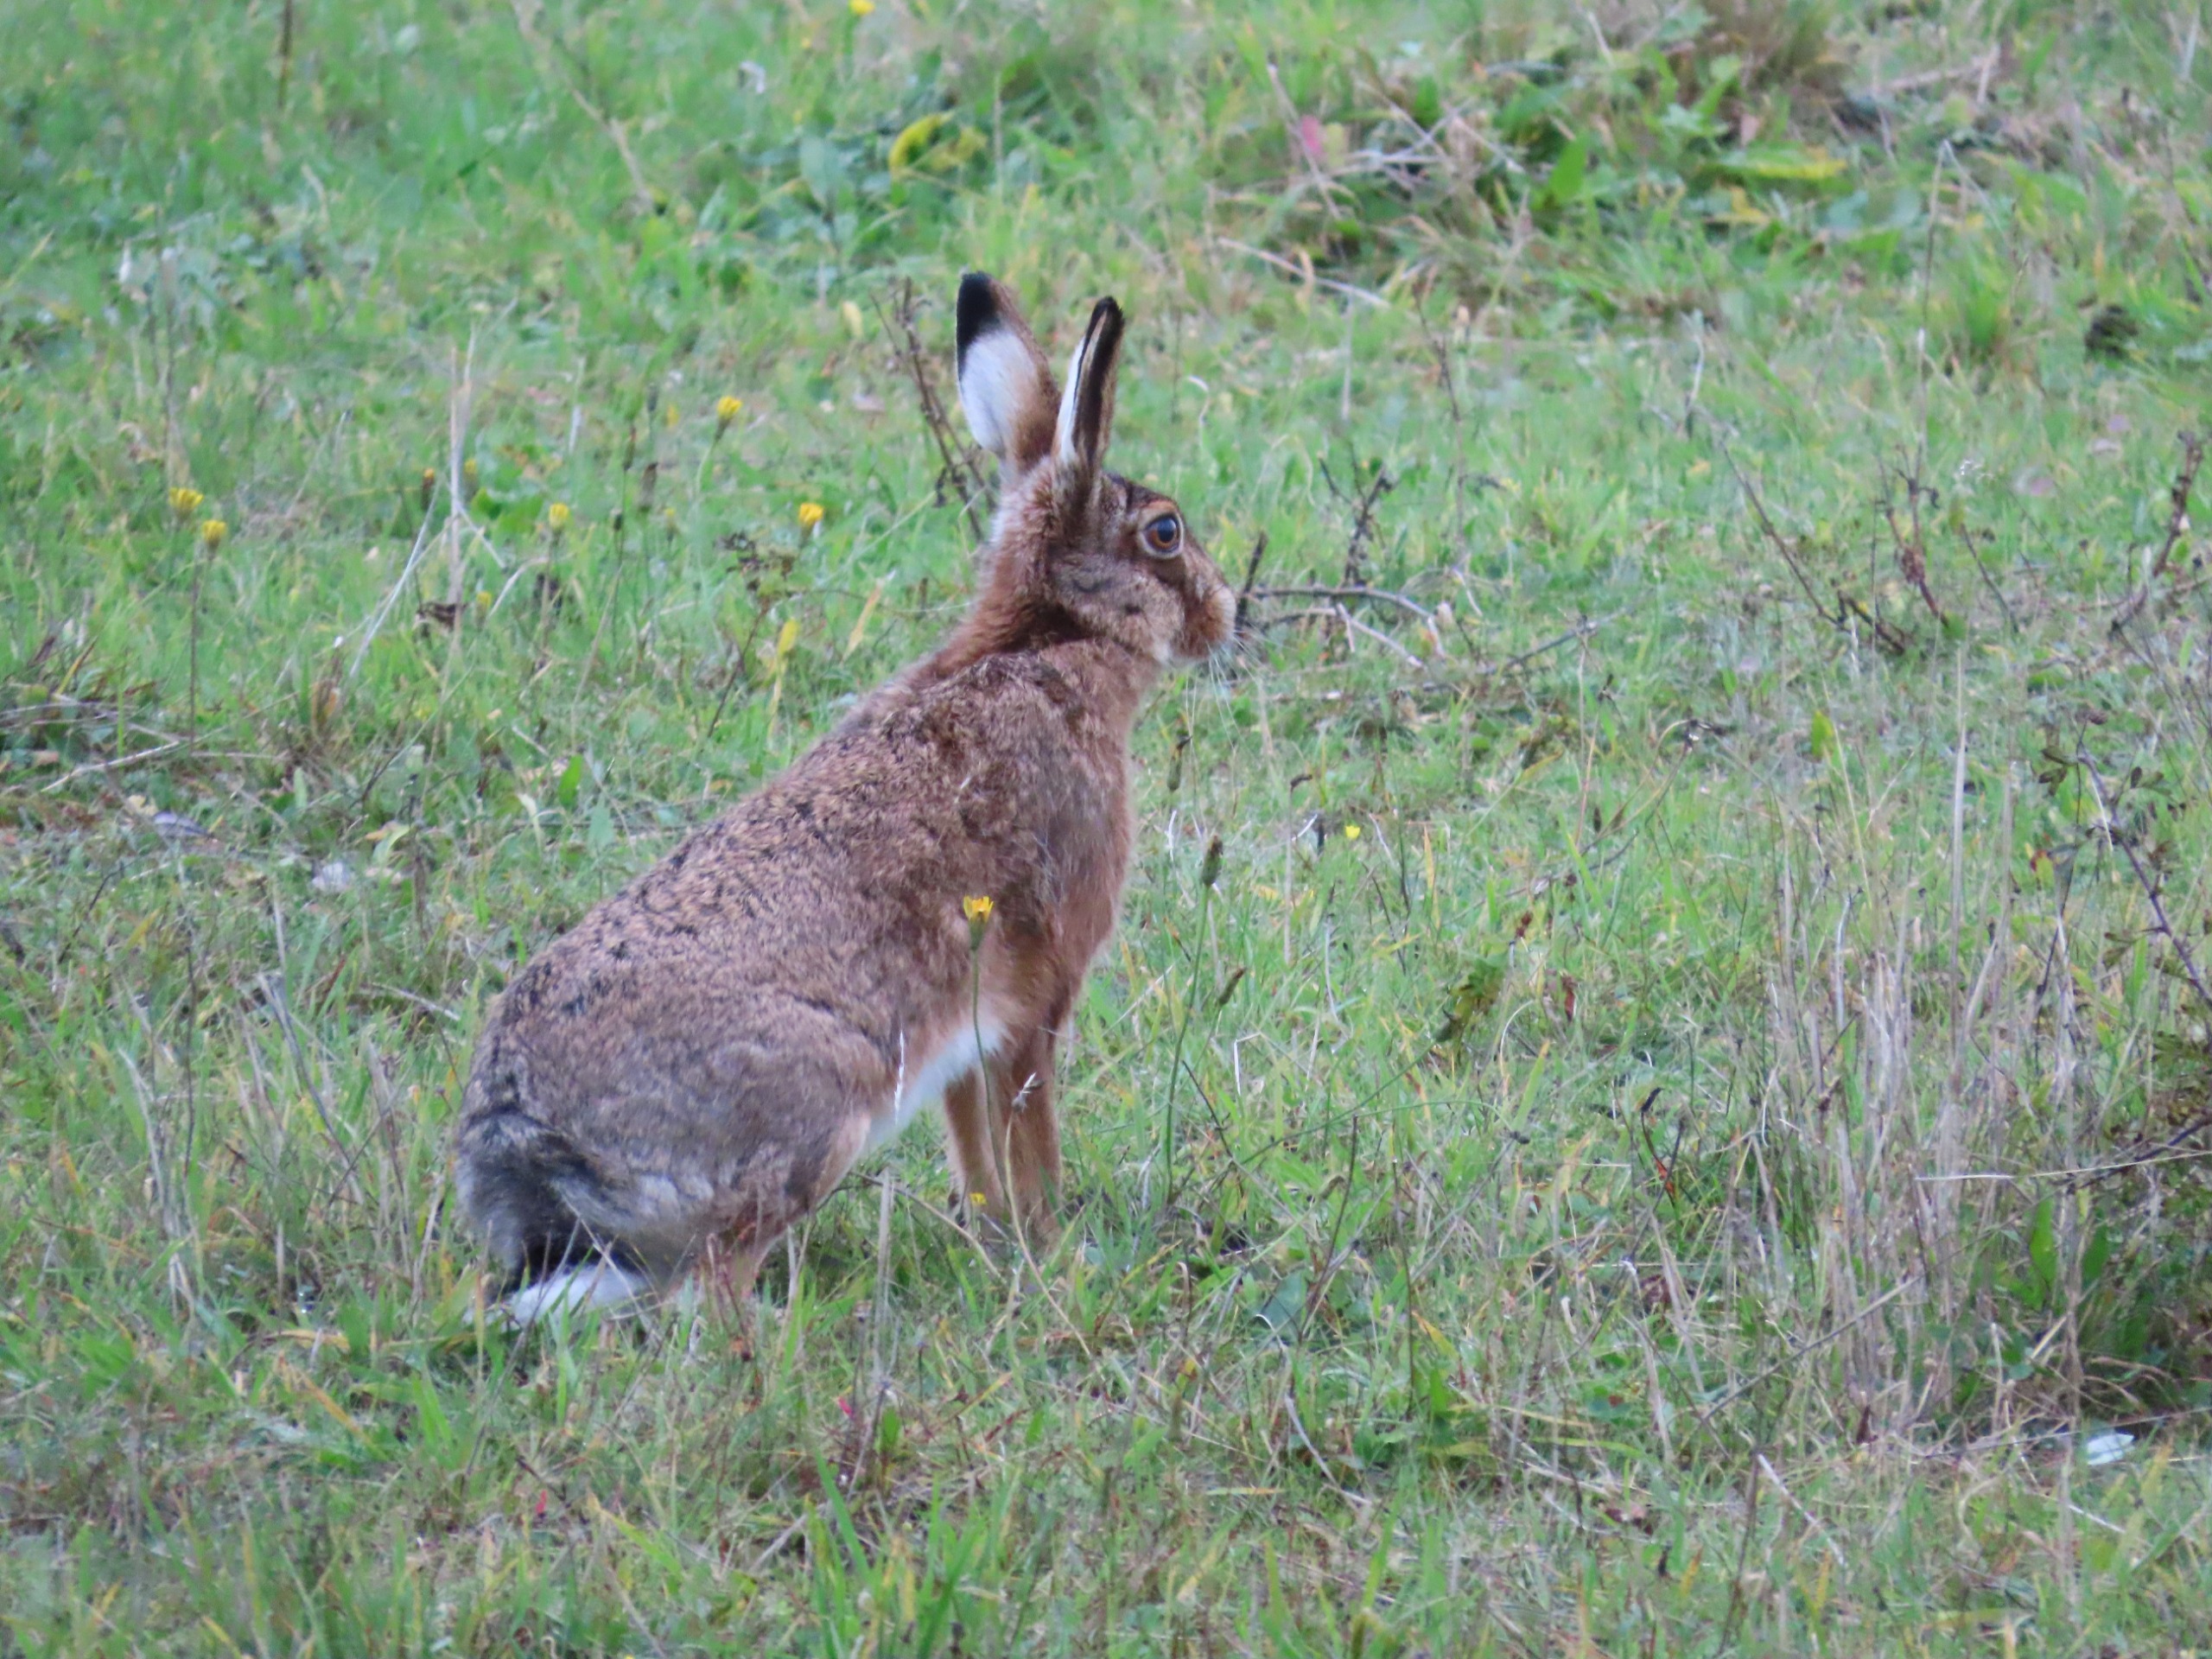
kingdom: Animalia
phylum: Chordata
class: Mammalia
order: Lagomorpha
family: Leporidae
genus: Lepus
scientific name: Lepus europaeus
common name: Hare
